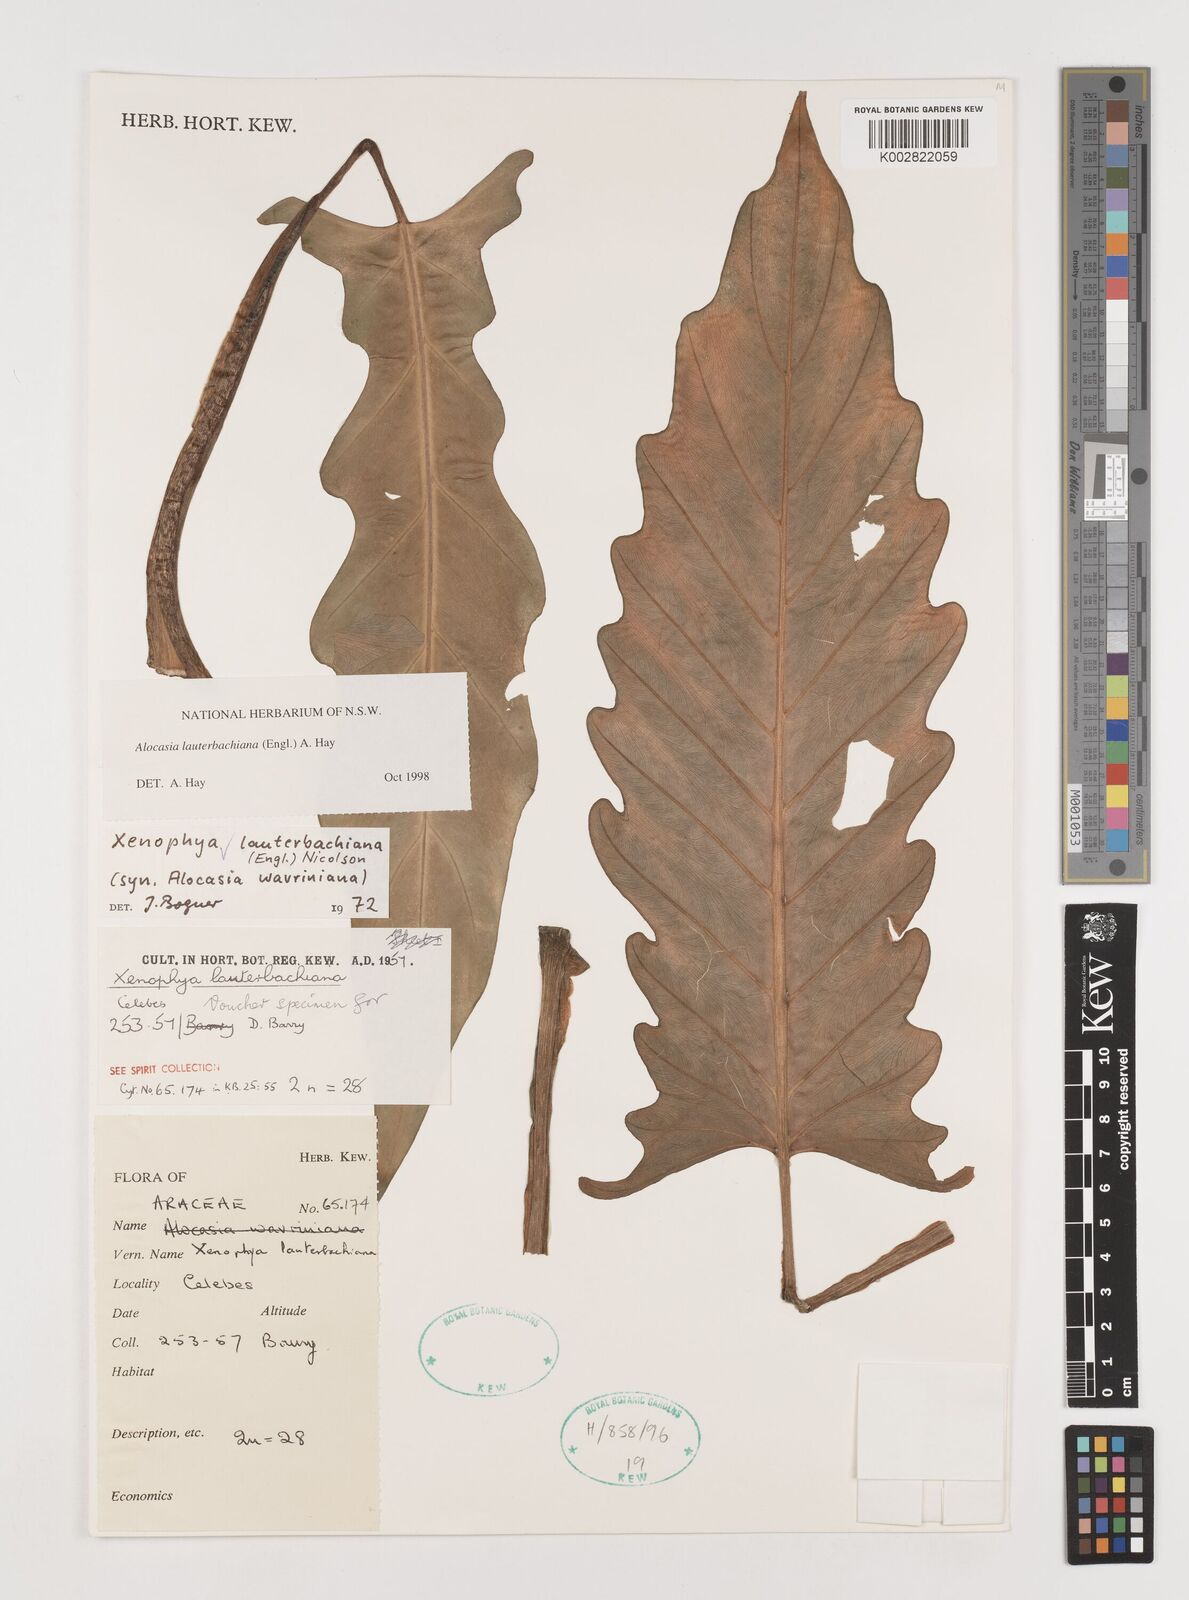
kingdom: Plantae
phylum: Tracheophyta
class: Liliopsida
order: Alismatales
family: Araceae
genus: Alocasia
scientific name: Alocasia lauterbachiana
